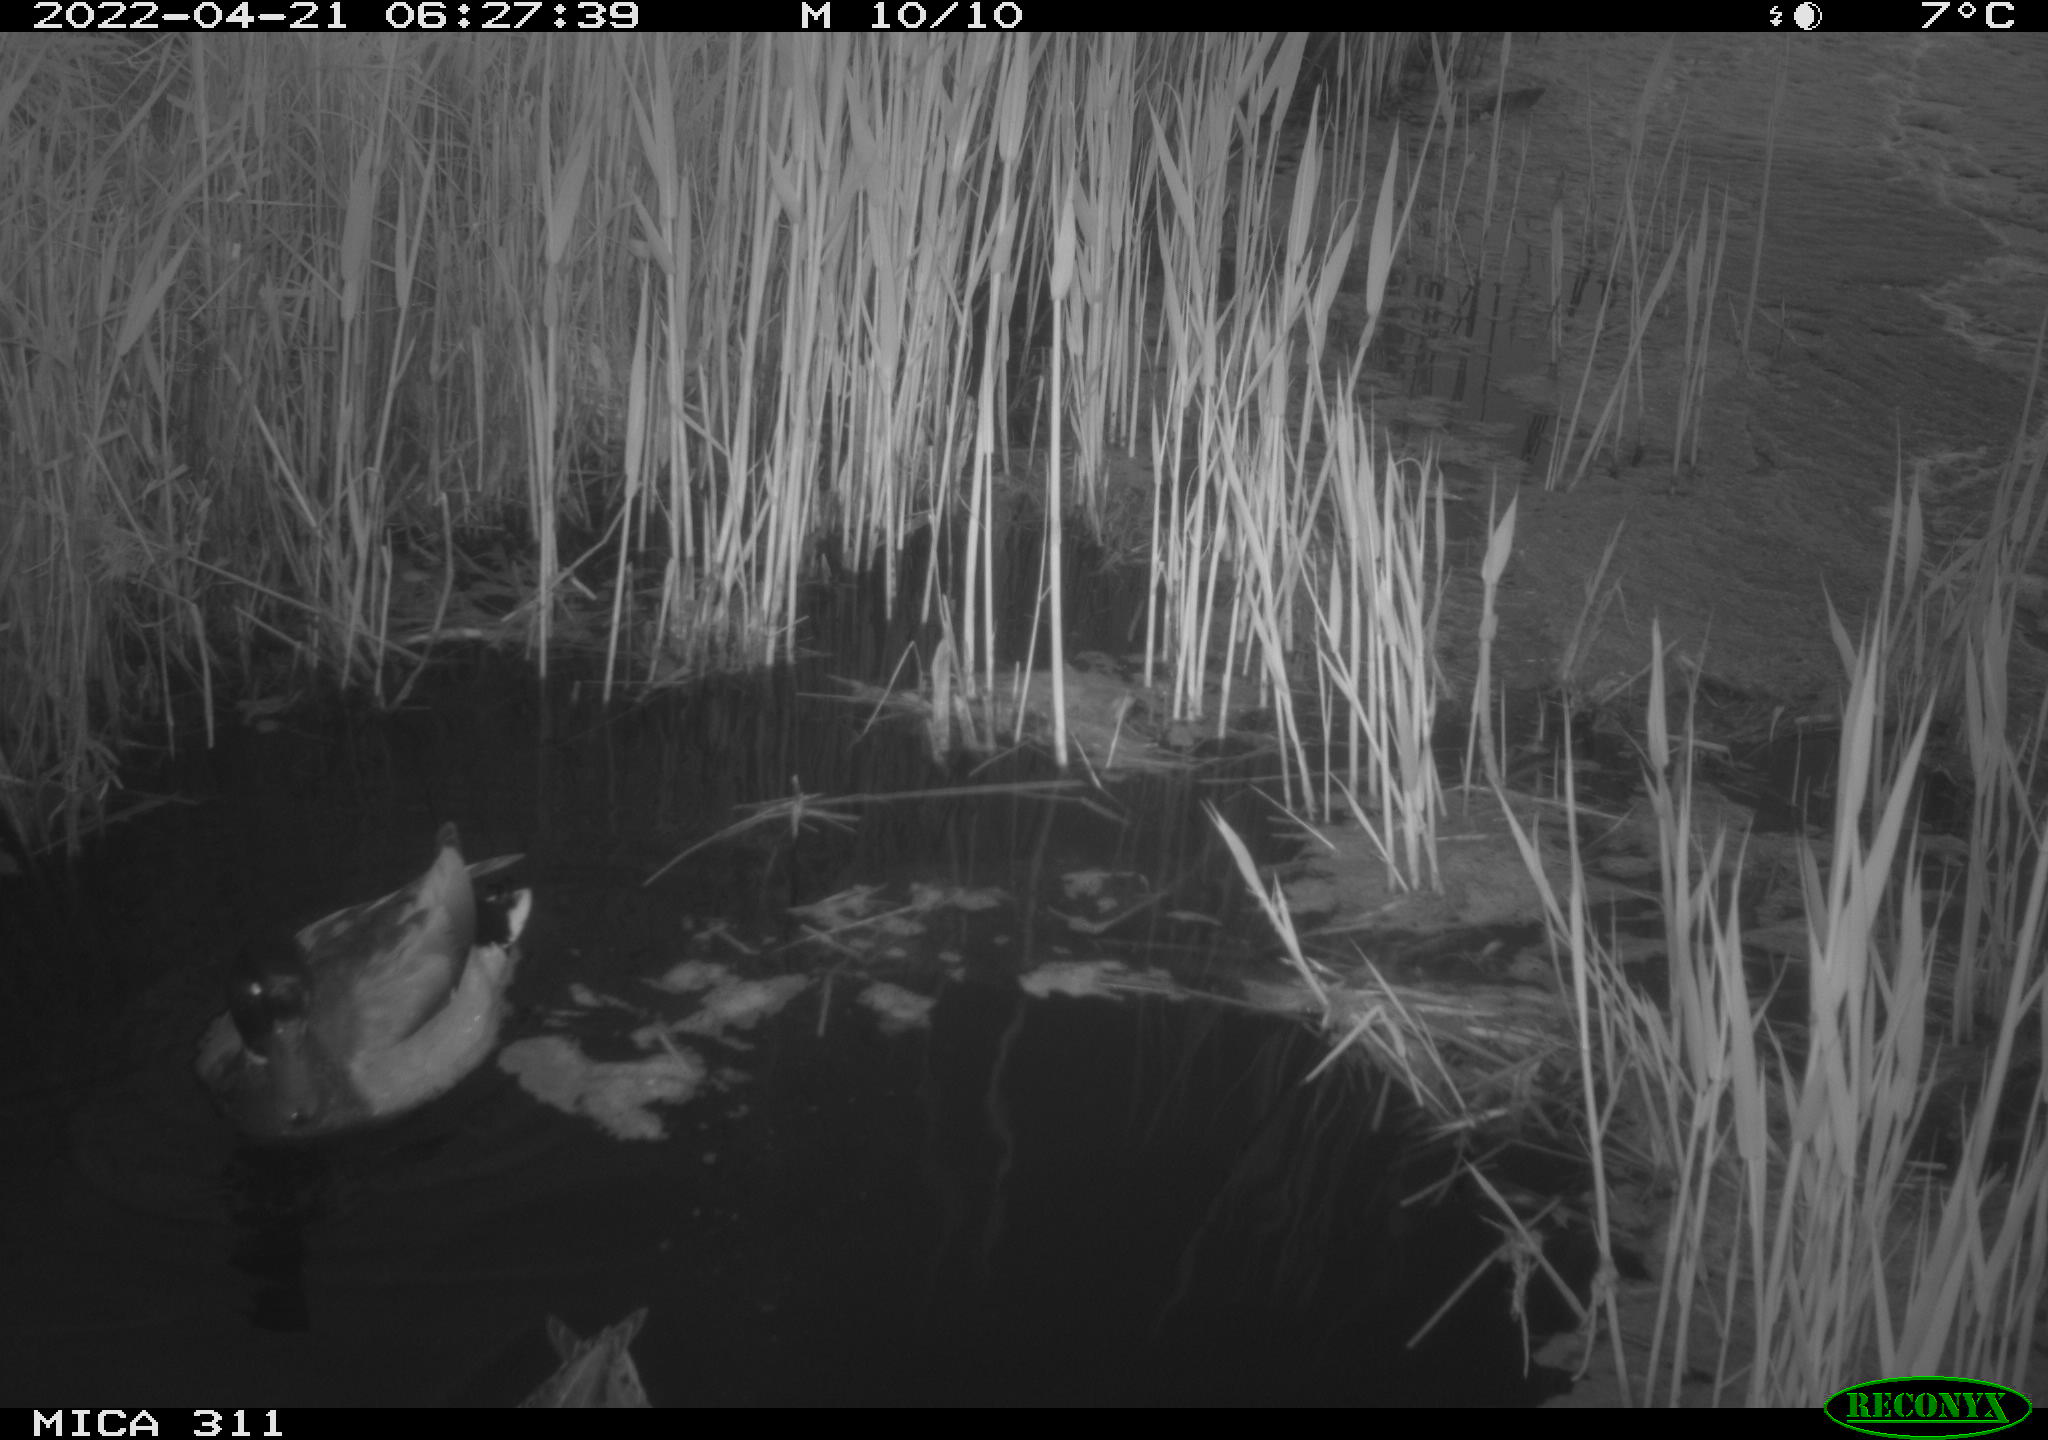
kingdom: Animalia
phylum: Chordata
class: Aves
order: Anseriformes
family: Anatidae
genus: Anas
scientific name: Anas
